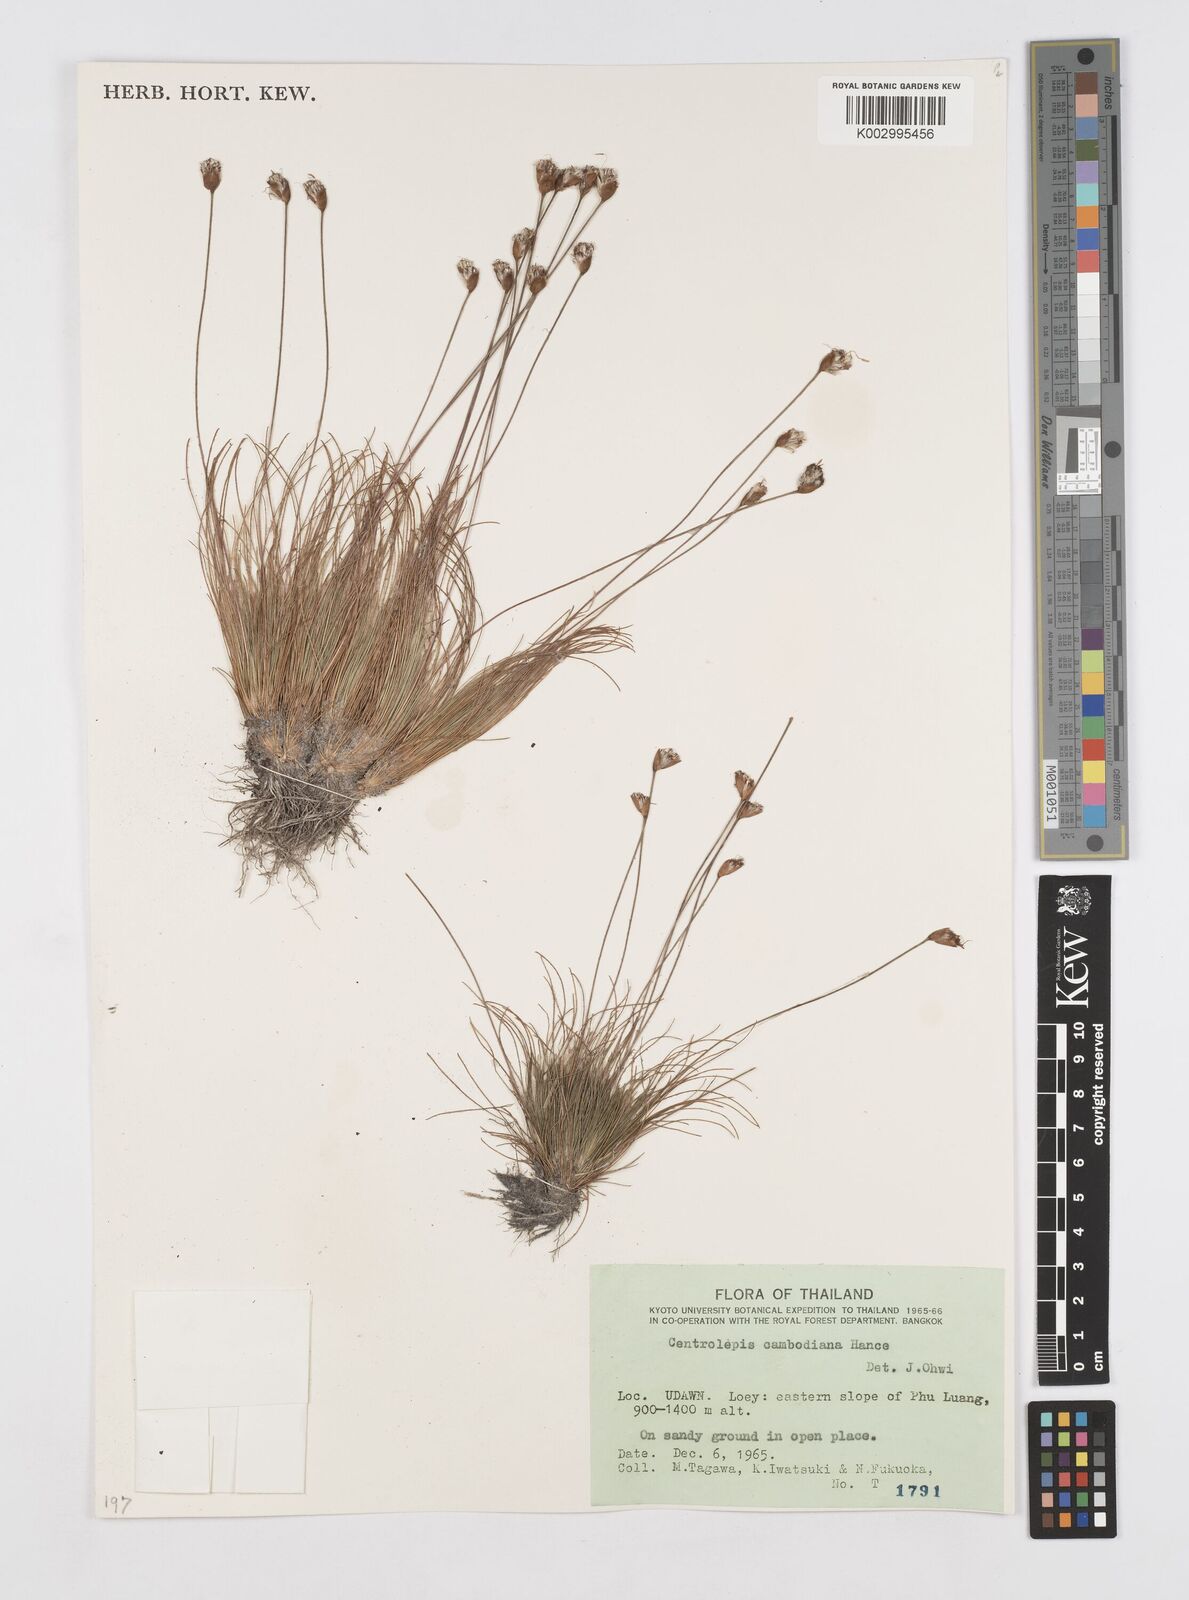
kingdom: Plantae
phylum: Tracheophyta
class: Liliopsida
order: Poales
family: Restionaceae
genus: Centrolepis
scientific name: Centrolepis cambodiana
